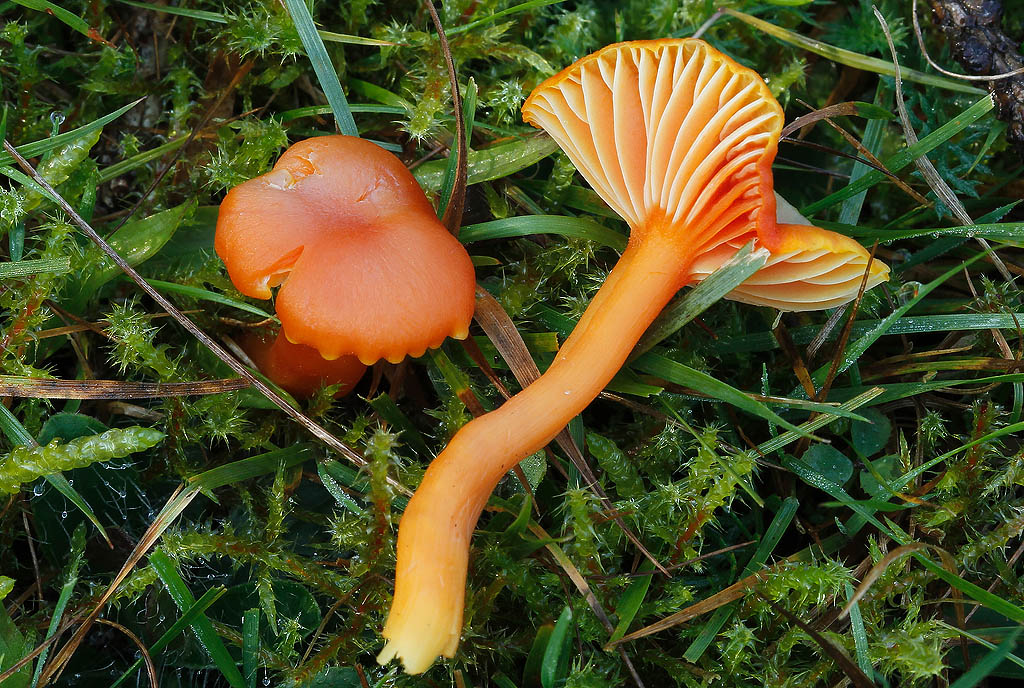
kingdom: Fungi
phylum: Basidiomycota
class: Agaricomycetes
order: Agaricales
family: Hygrophoraceae
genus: Hygrocybe
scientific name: Hygrocybe reidii
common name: honning-vokshat
